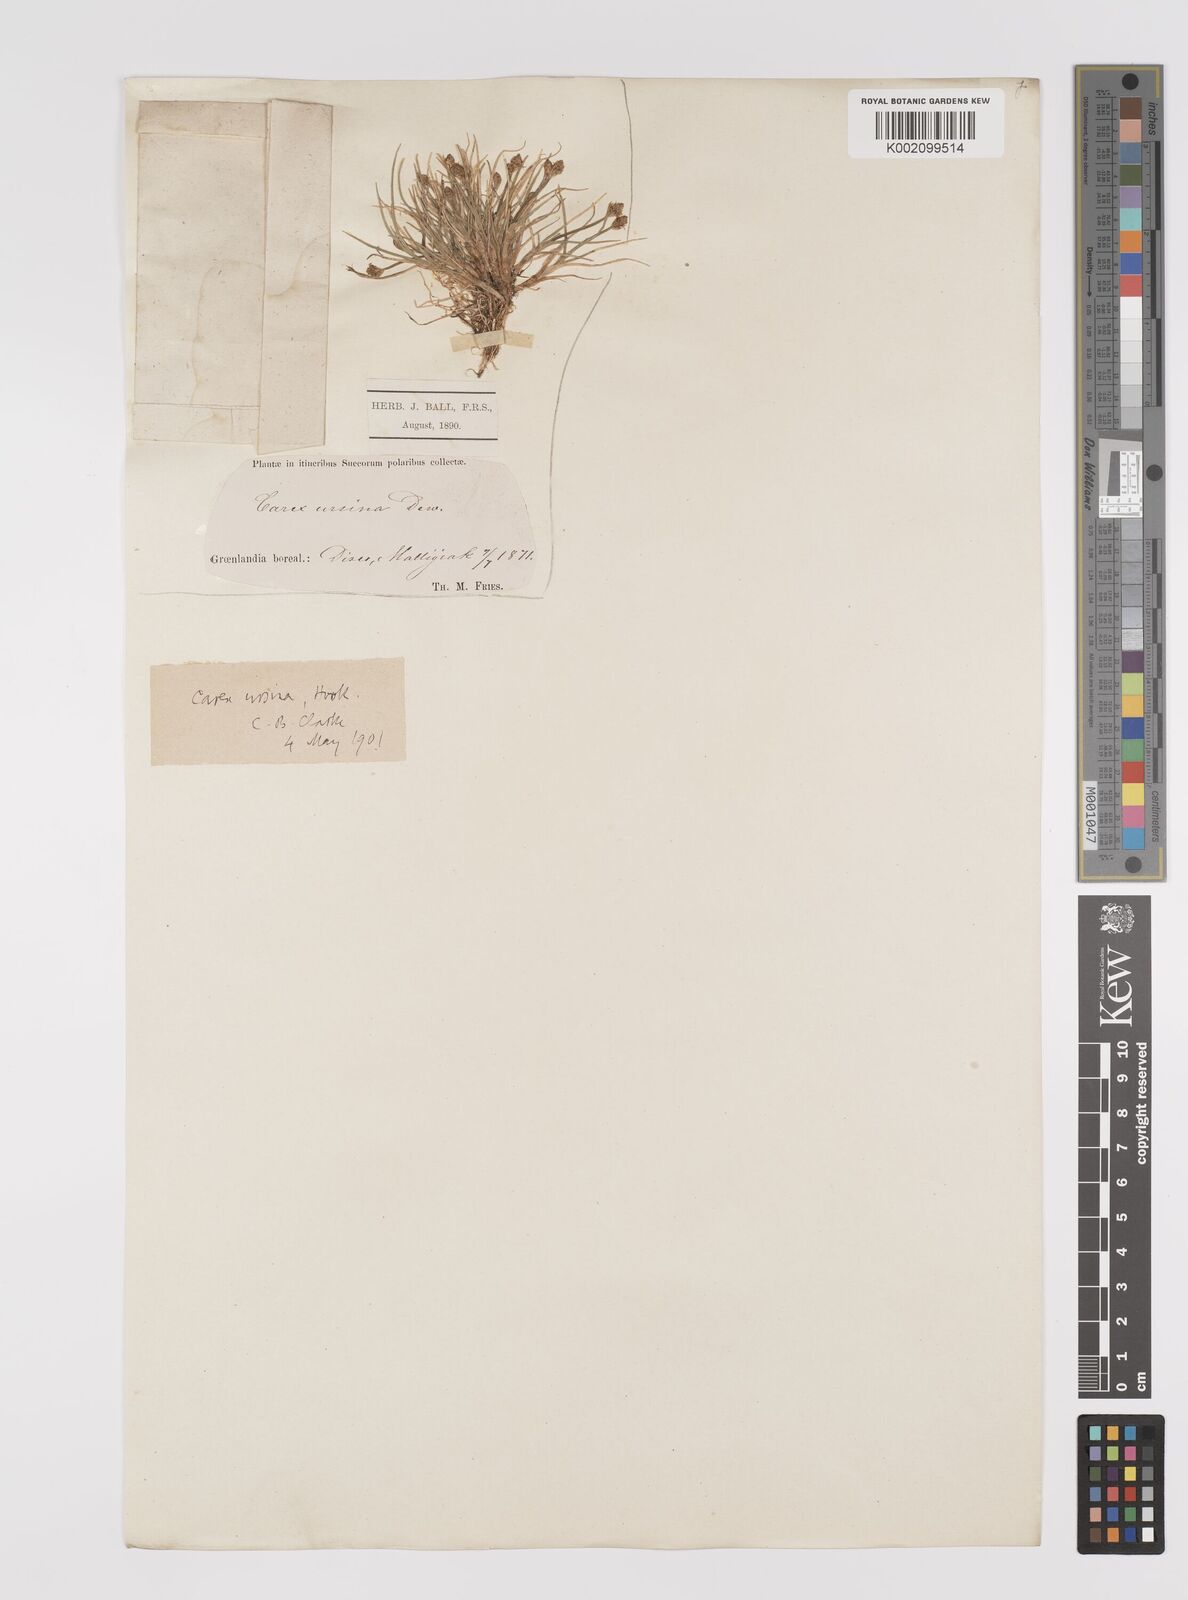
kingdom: Plantae
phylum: Tracheophyta
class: Liliopsida
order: Poales
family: Cyperaceae
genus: Carex
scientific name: Carex ursina
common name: Bear sedge
